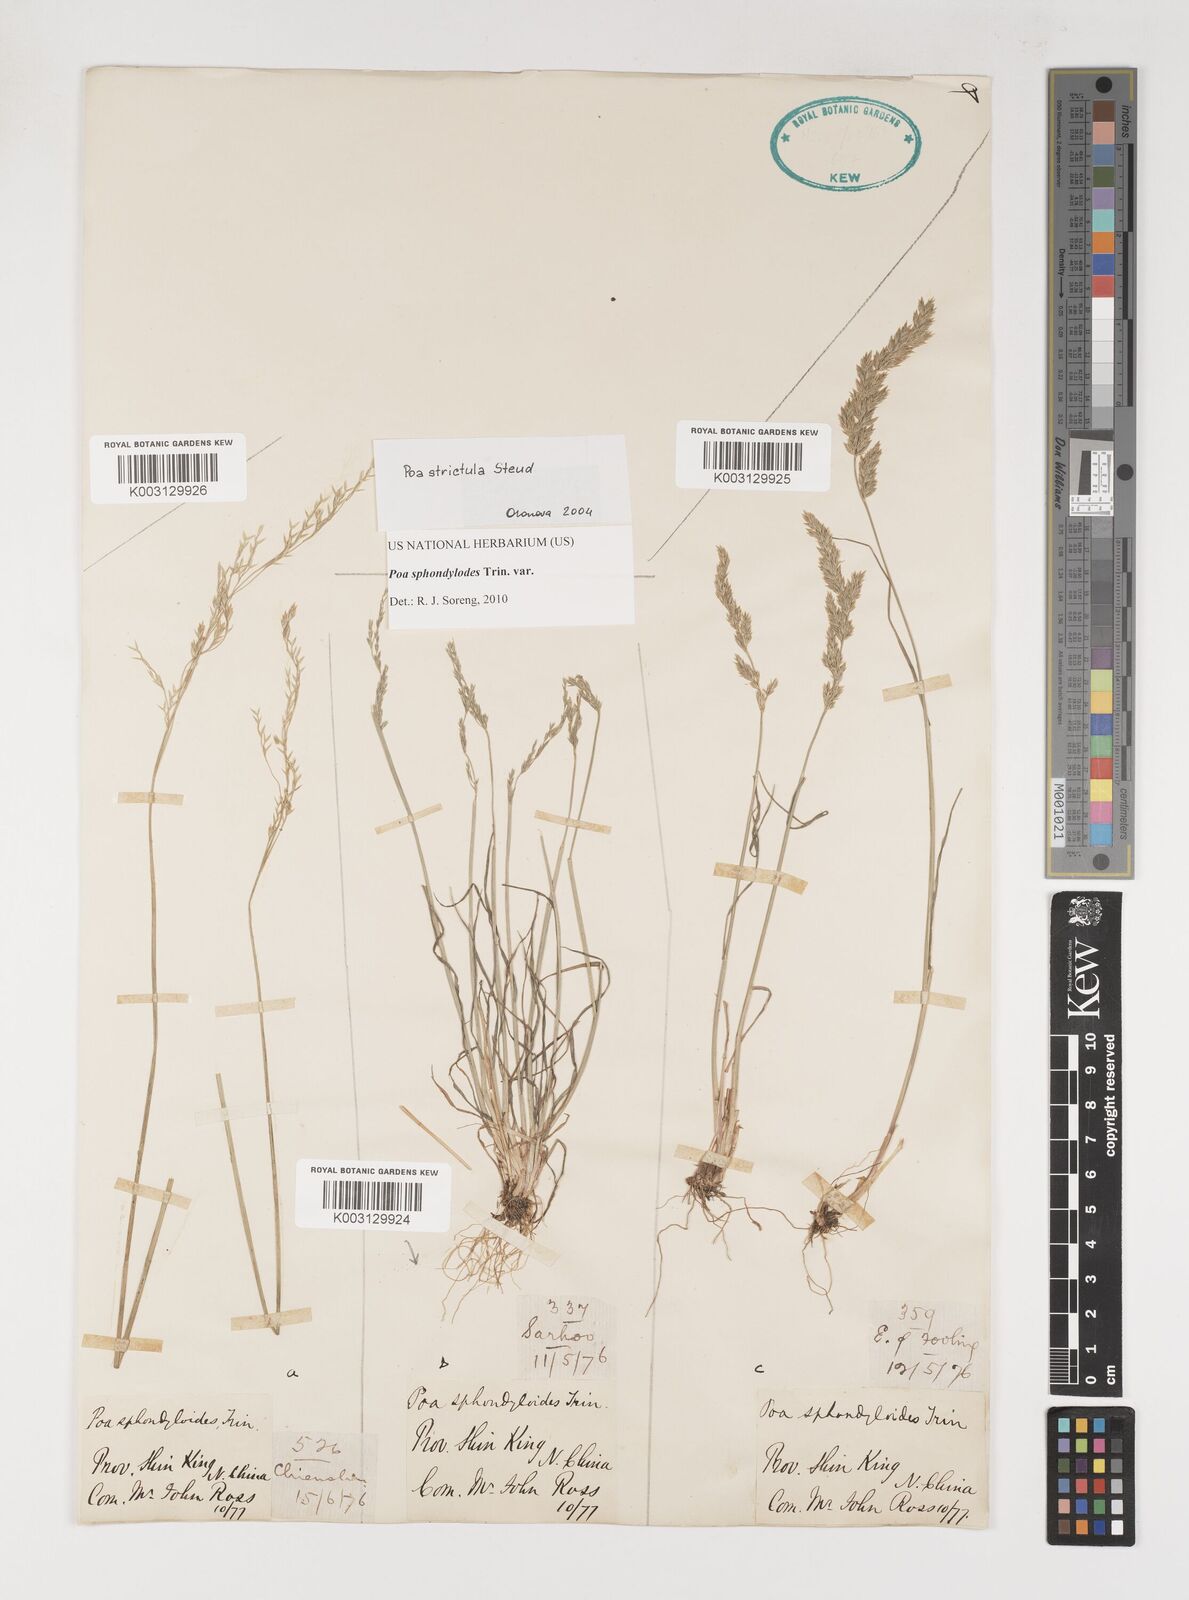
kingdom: Plantae
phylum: Tracheophyta
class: Liliopsida
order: Poales
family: Poaceae
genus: Poa
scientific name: Poa sphondylodes
